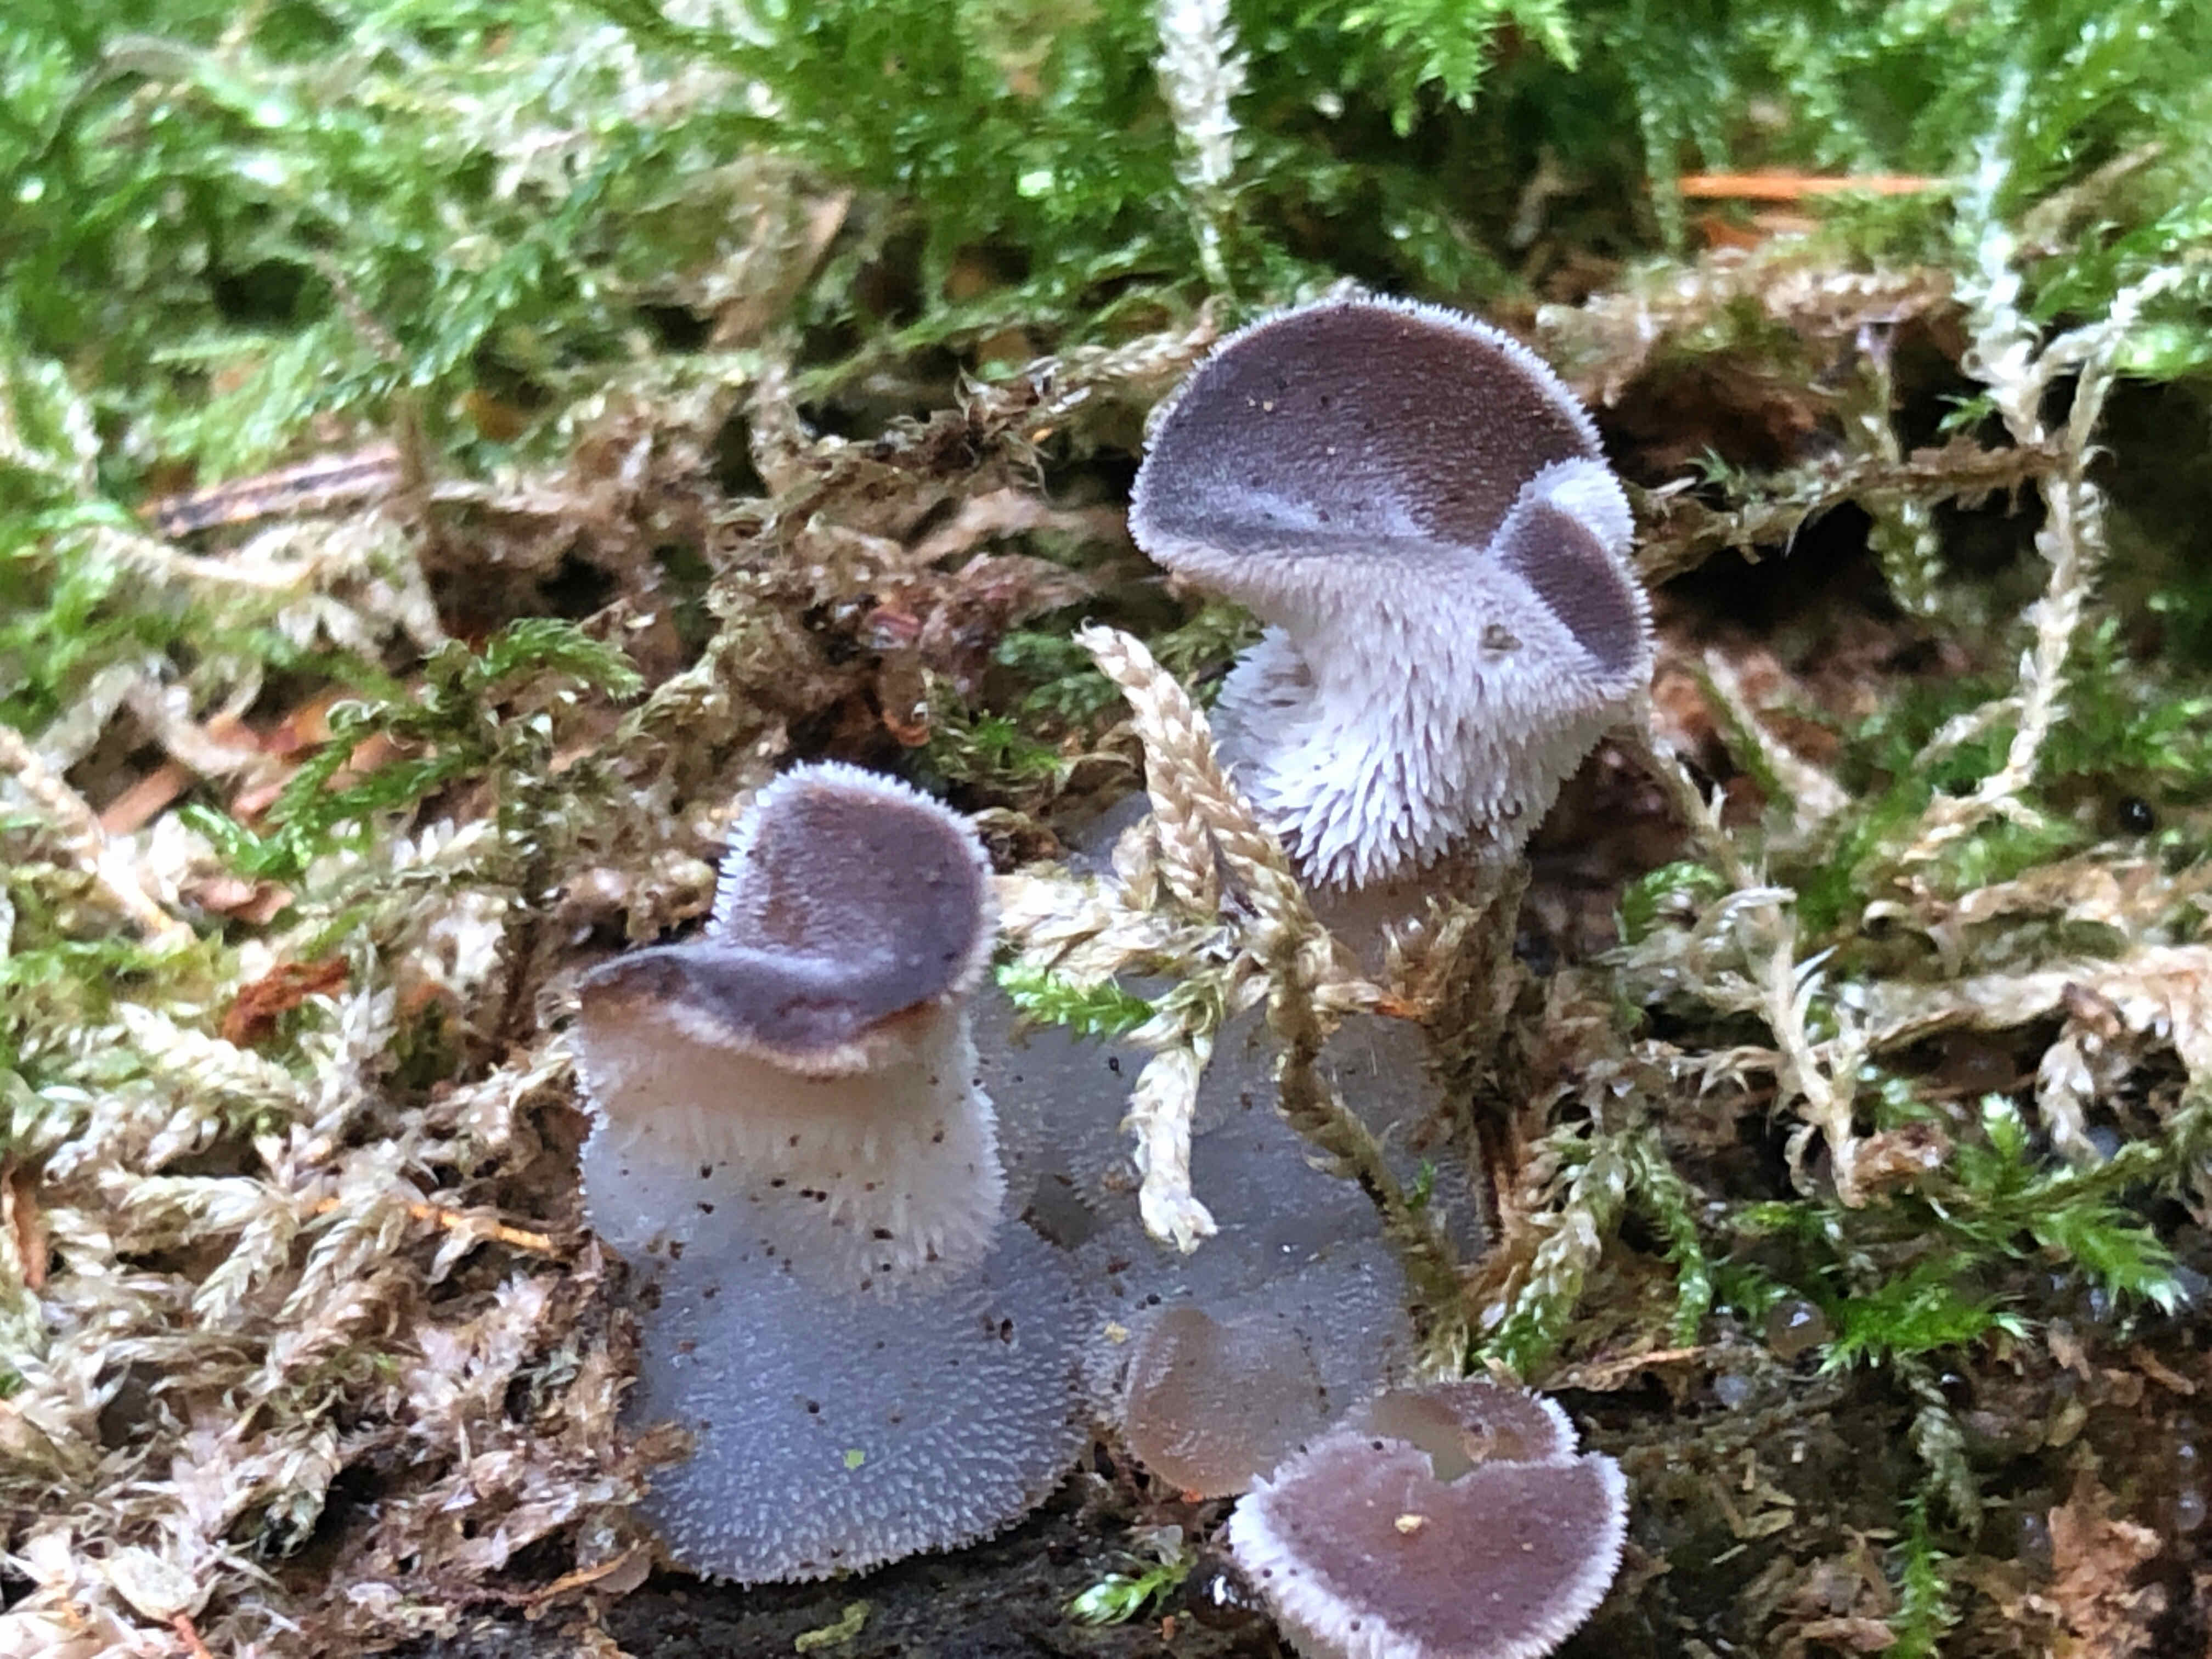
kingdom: Fungi
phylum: Basidiomycota
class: Agaricomycetes
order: Auriculariales
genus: Pseudohydnum
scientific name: Pseudohydnum gelatinosum
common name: bævretand
